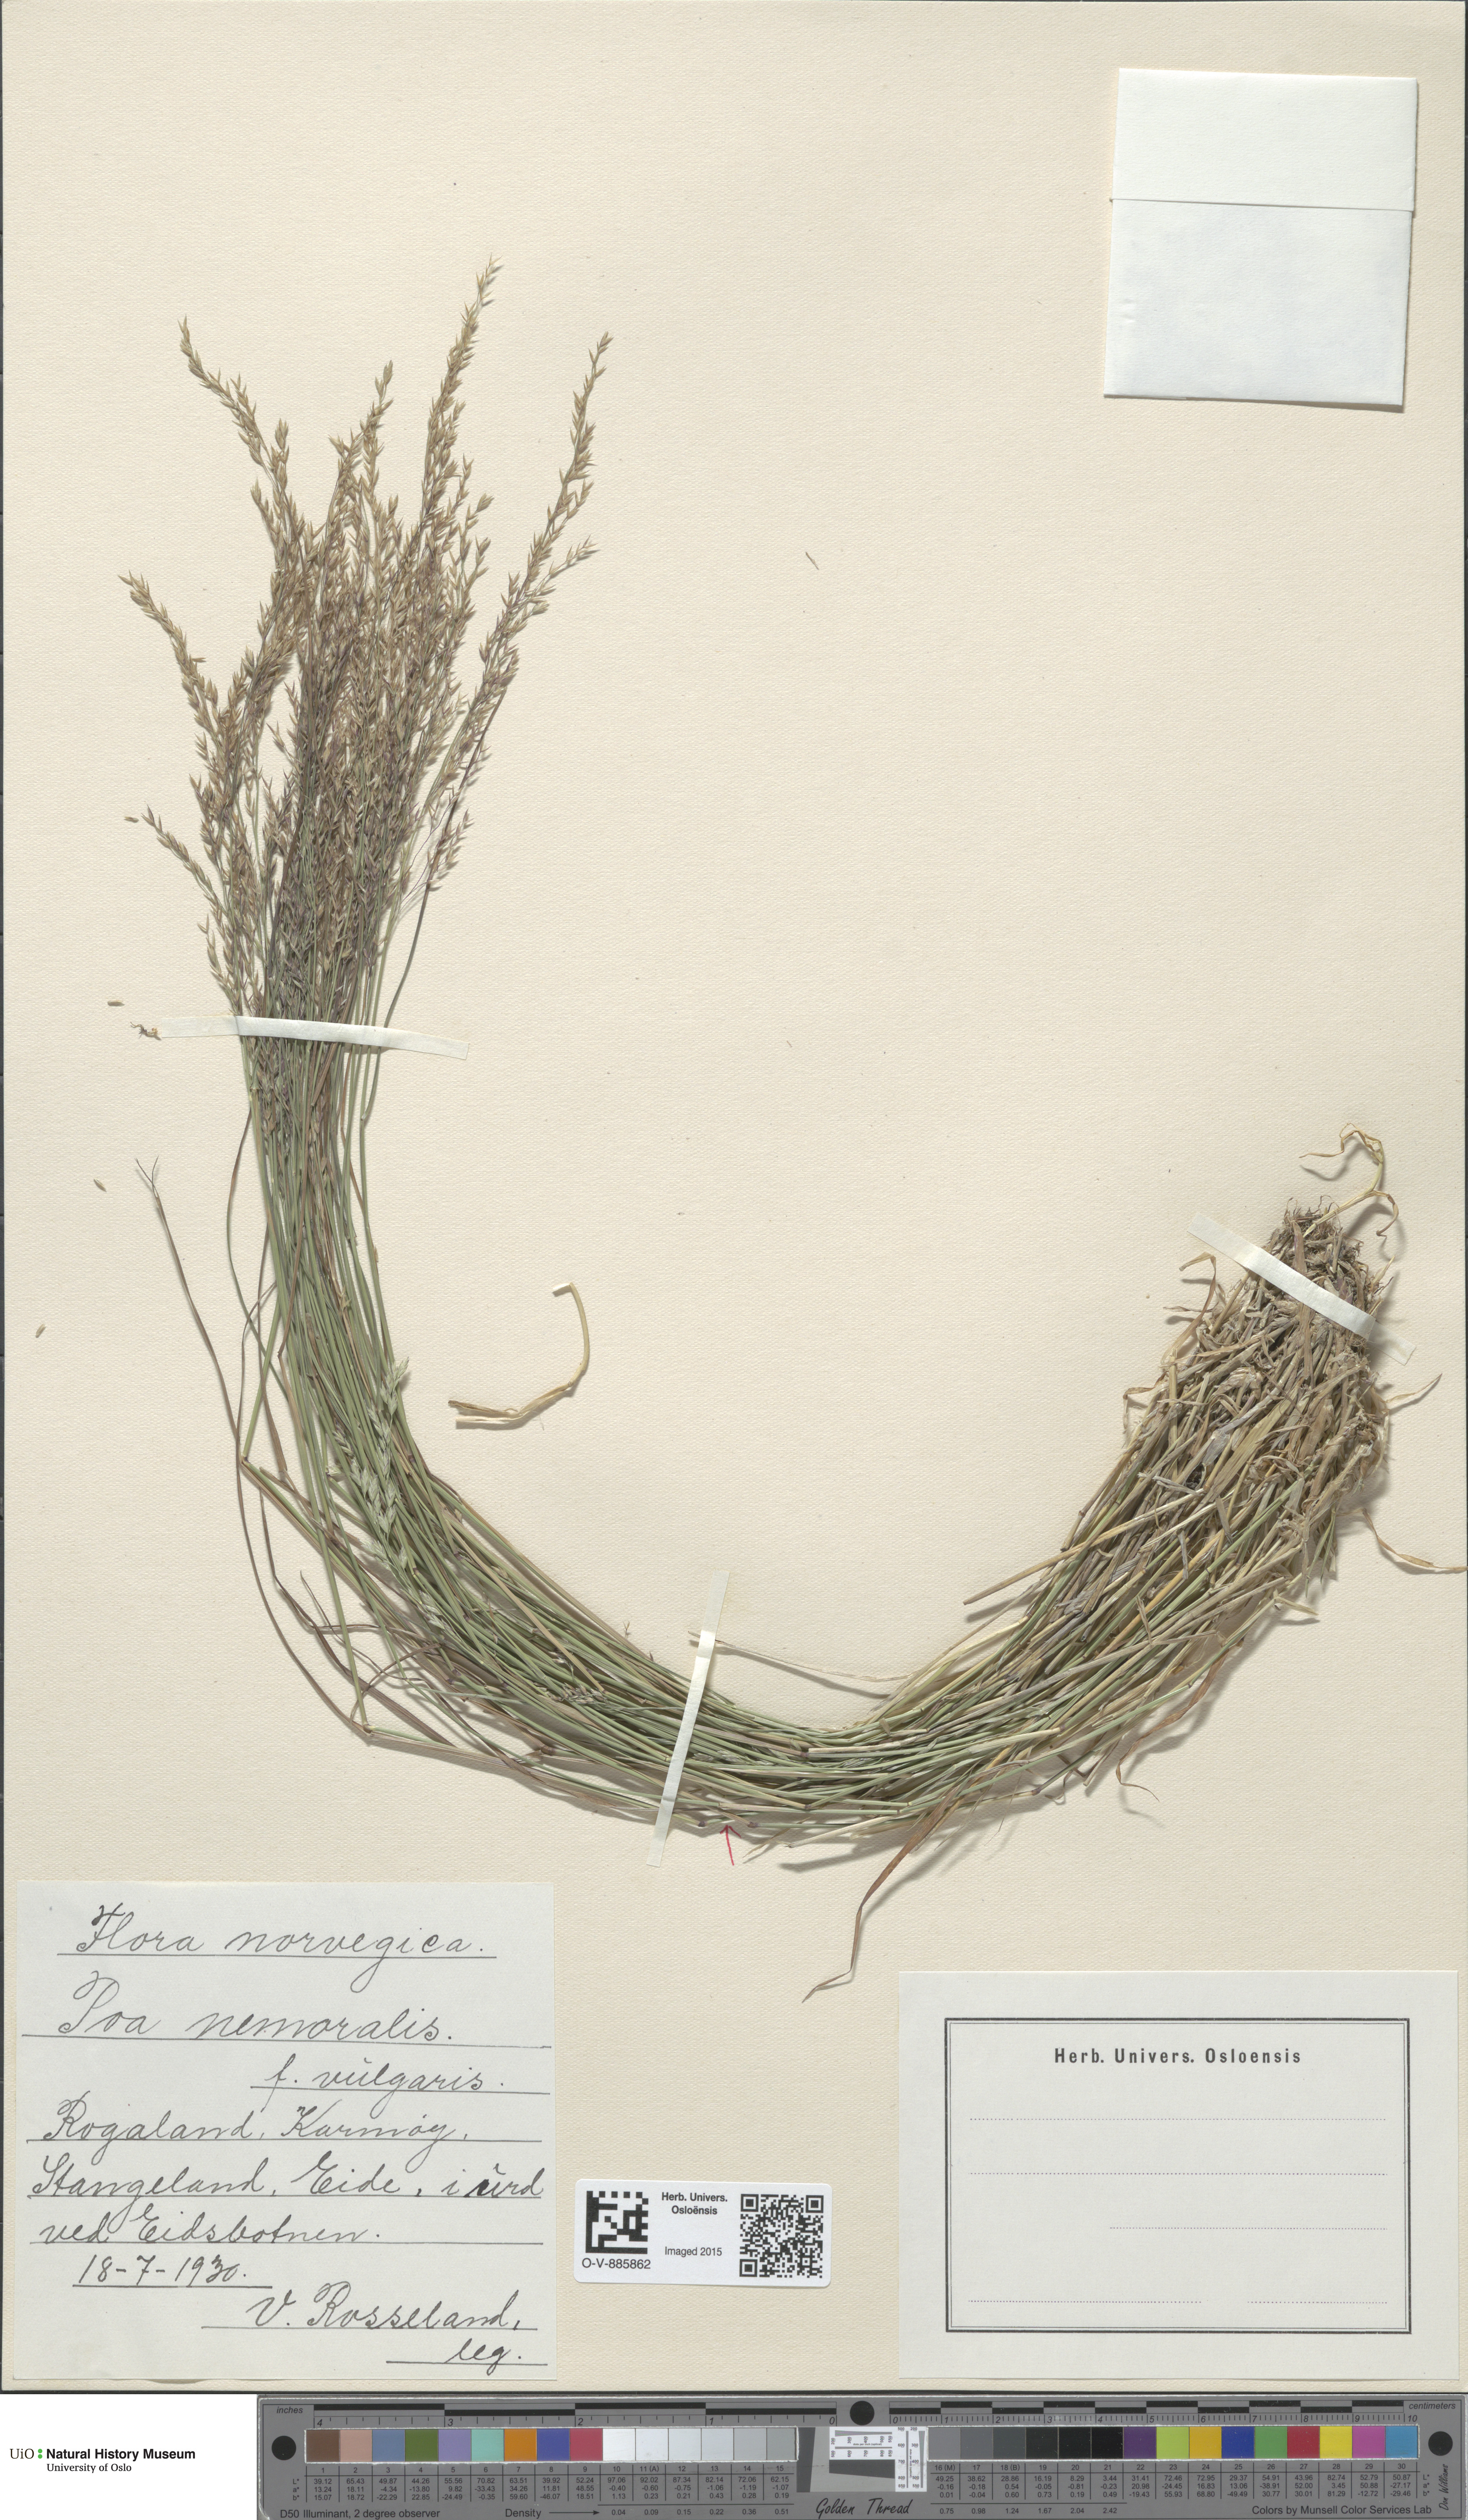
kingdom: Plantae
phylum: Tracheophyta
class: Liliopsida
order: Poales
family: Poaceae
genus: Poa
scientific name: Poa nemoralis
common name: Wood bluegrass
